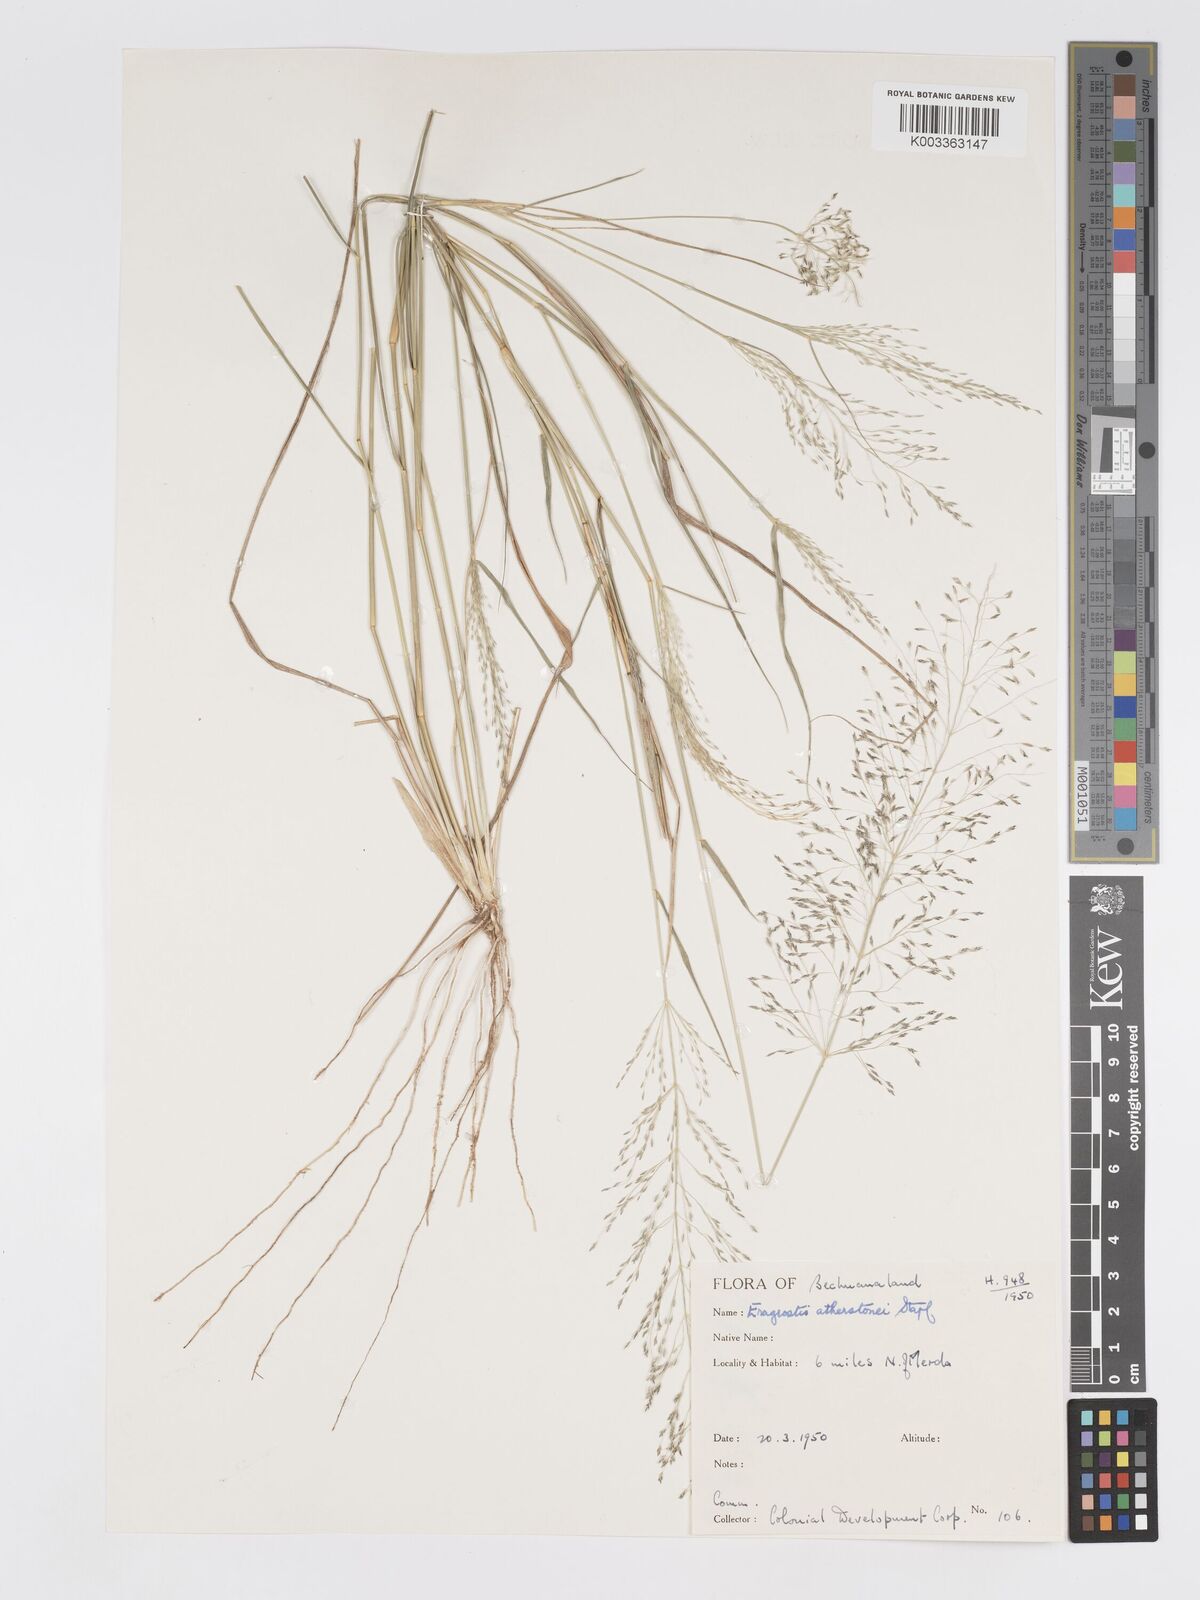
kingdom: Plantae
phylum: Tracheophyta
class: Liliopsida
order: Poales
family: Poaceae
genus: Eragrostis
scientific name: Eragrostis cylindriflora
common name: Cylinderflower lovegrass
